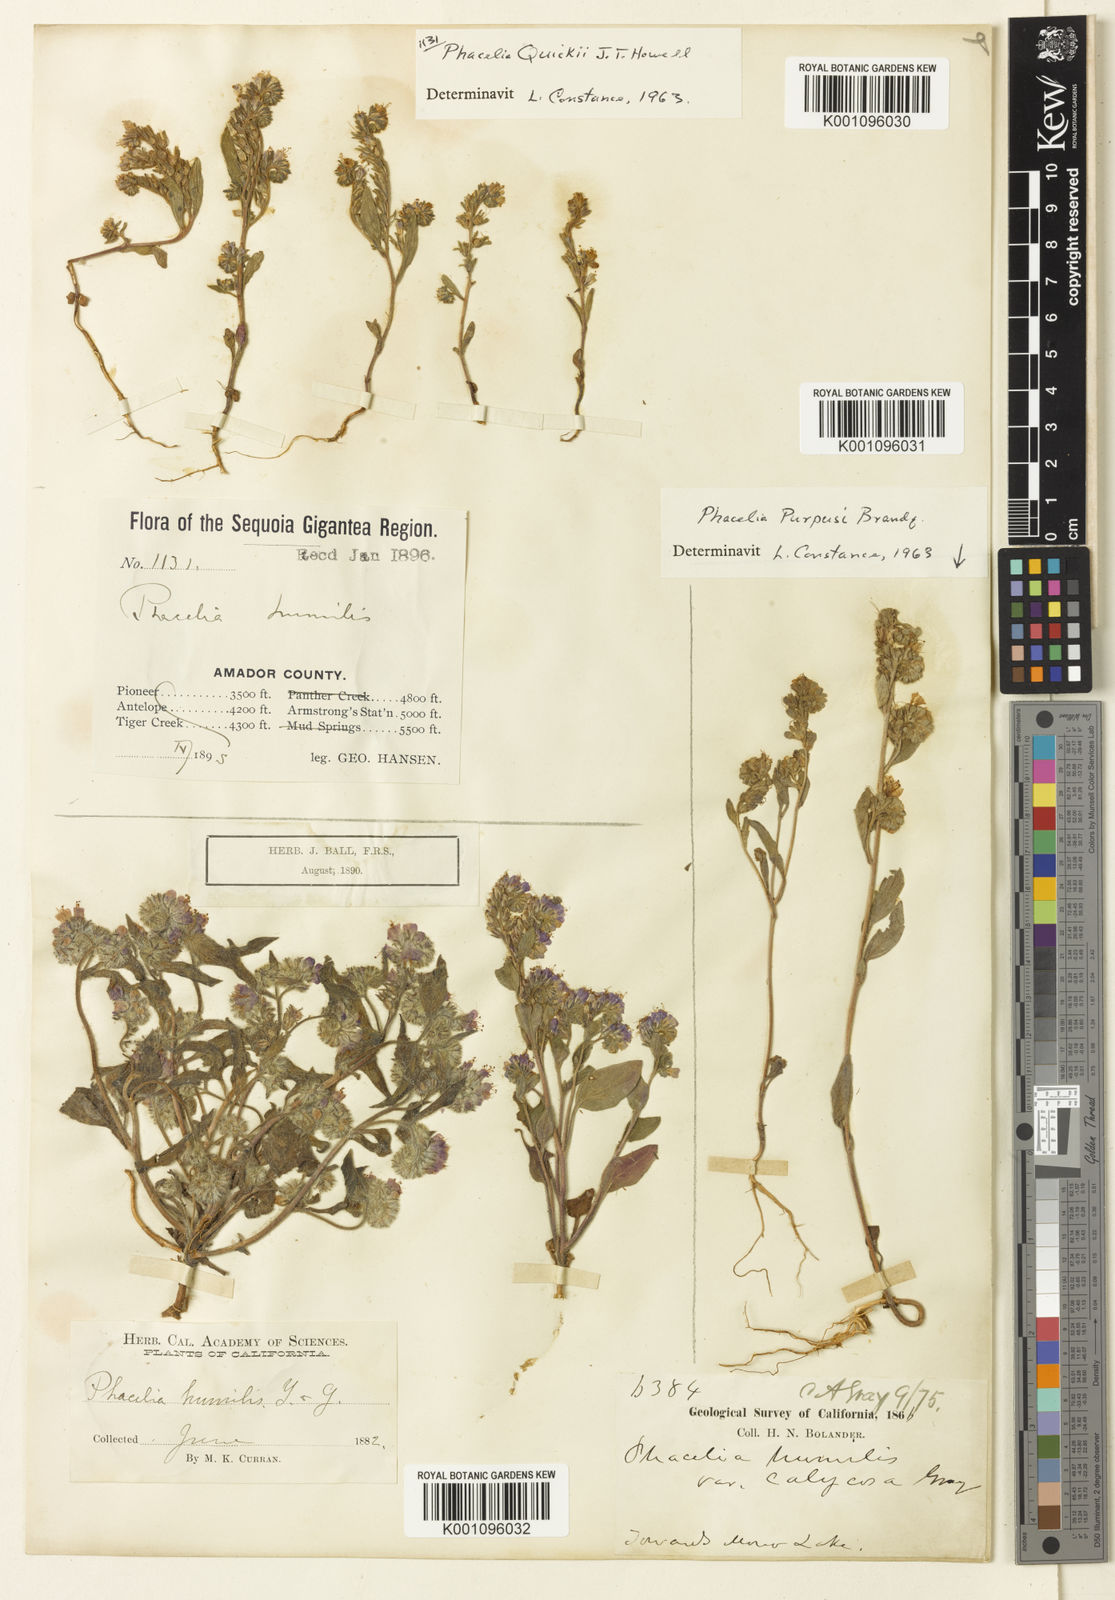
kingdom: Plantae
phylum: Tracheophyta
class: Magnoliopsida
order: Boraginales
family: Hydrophyllaceae
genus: Phacelia
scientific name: Phacelia purpusii
